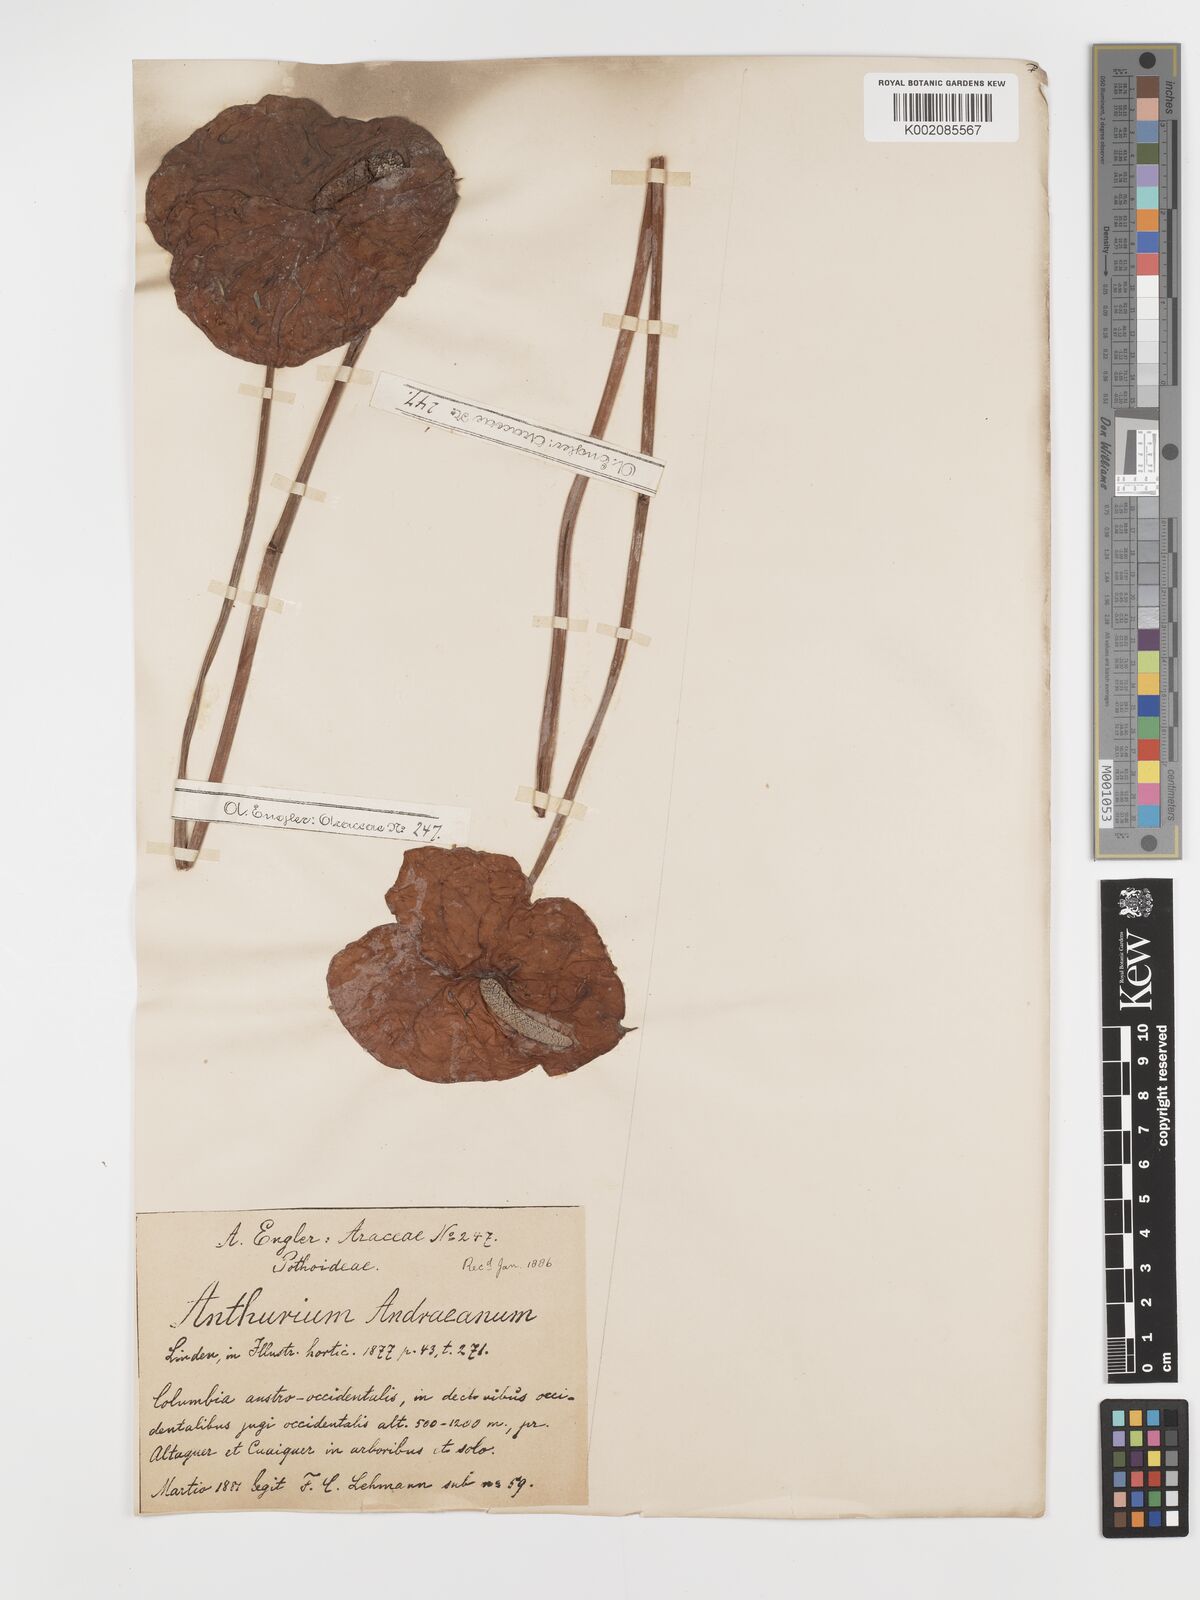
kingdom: Plantae
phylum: Tracheophyta
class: Liliopsida
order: Alismatales
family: Araceae
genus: Anthurium
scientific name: Anthurium andraeanum
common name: Flamingo-flower
